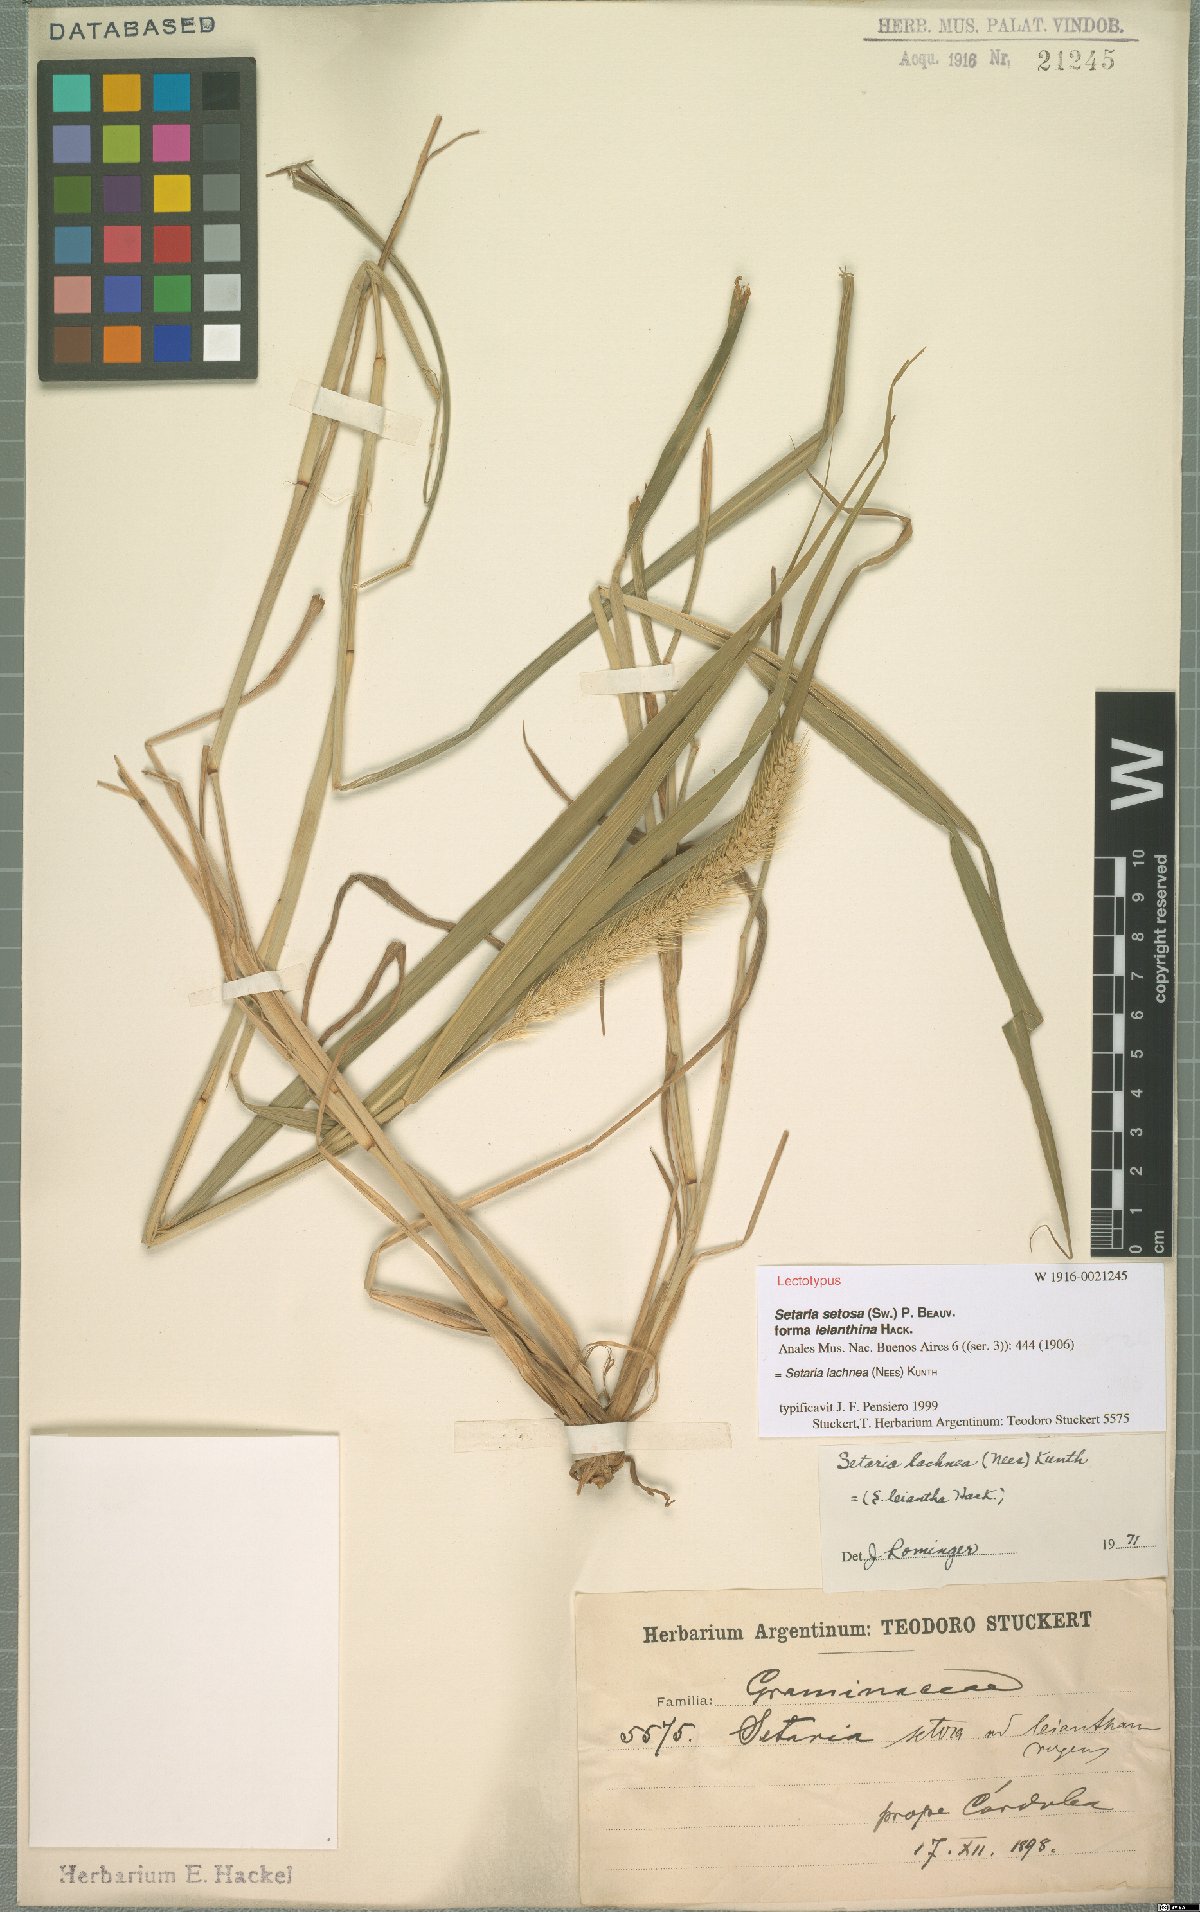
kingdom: Plantae
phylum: Tracheophyta
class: Liliopsida
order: Poales
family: Poaceae
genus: Setaria
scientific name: Setaria lachnea
